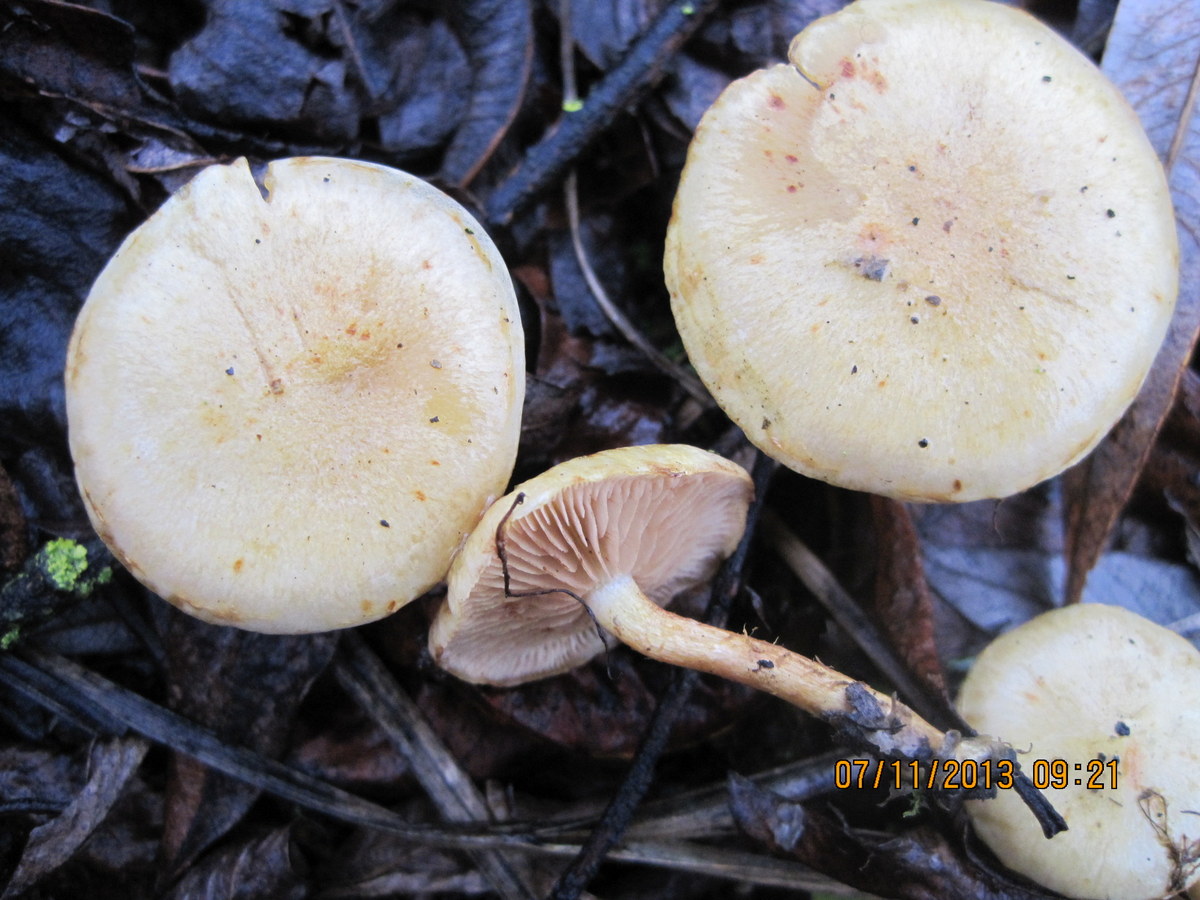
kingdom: Fungi
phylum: Basidiomycota
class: Agaricomycetes
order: Agaricales
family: Strophariaceae
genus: Pholiota
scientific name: Pholiota conissans
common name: pile-skælhat
